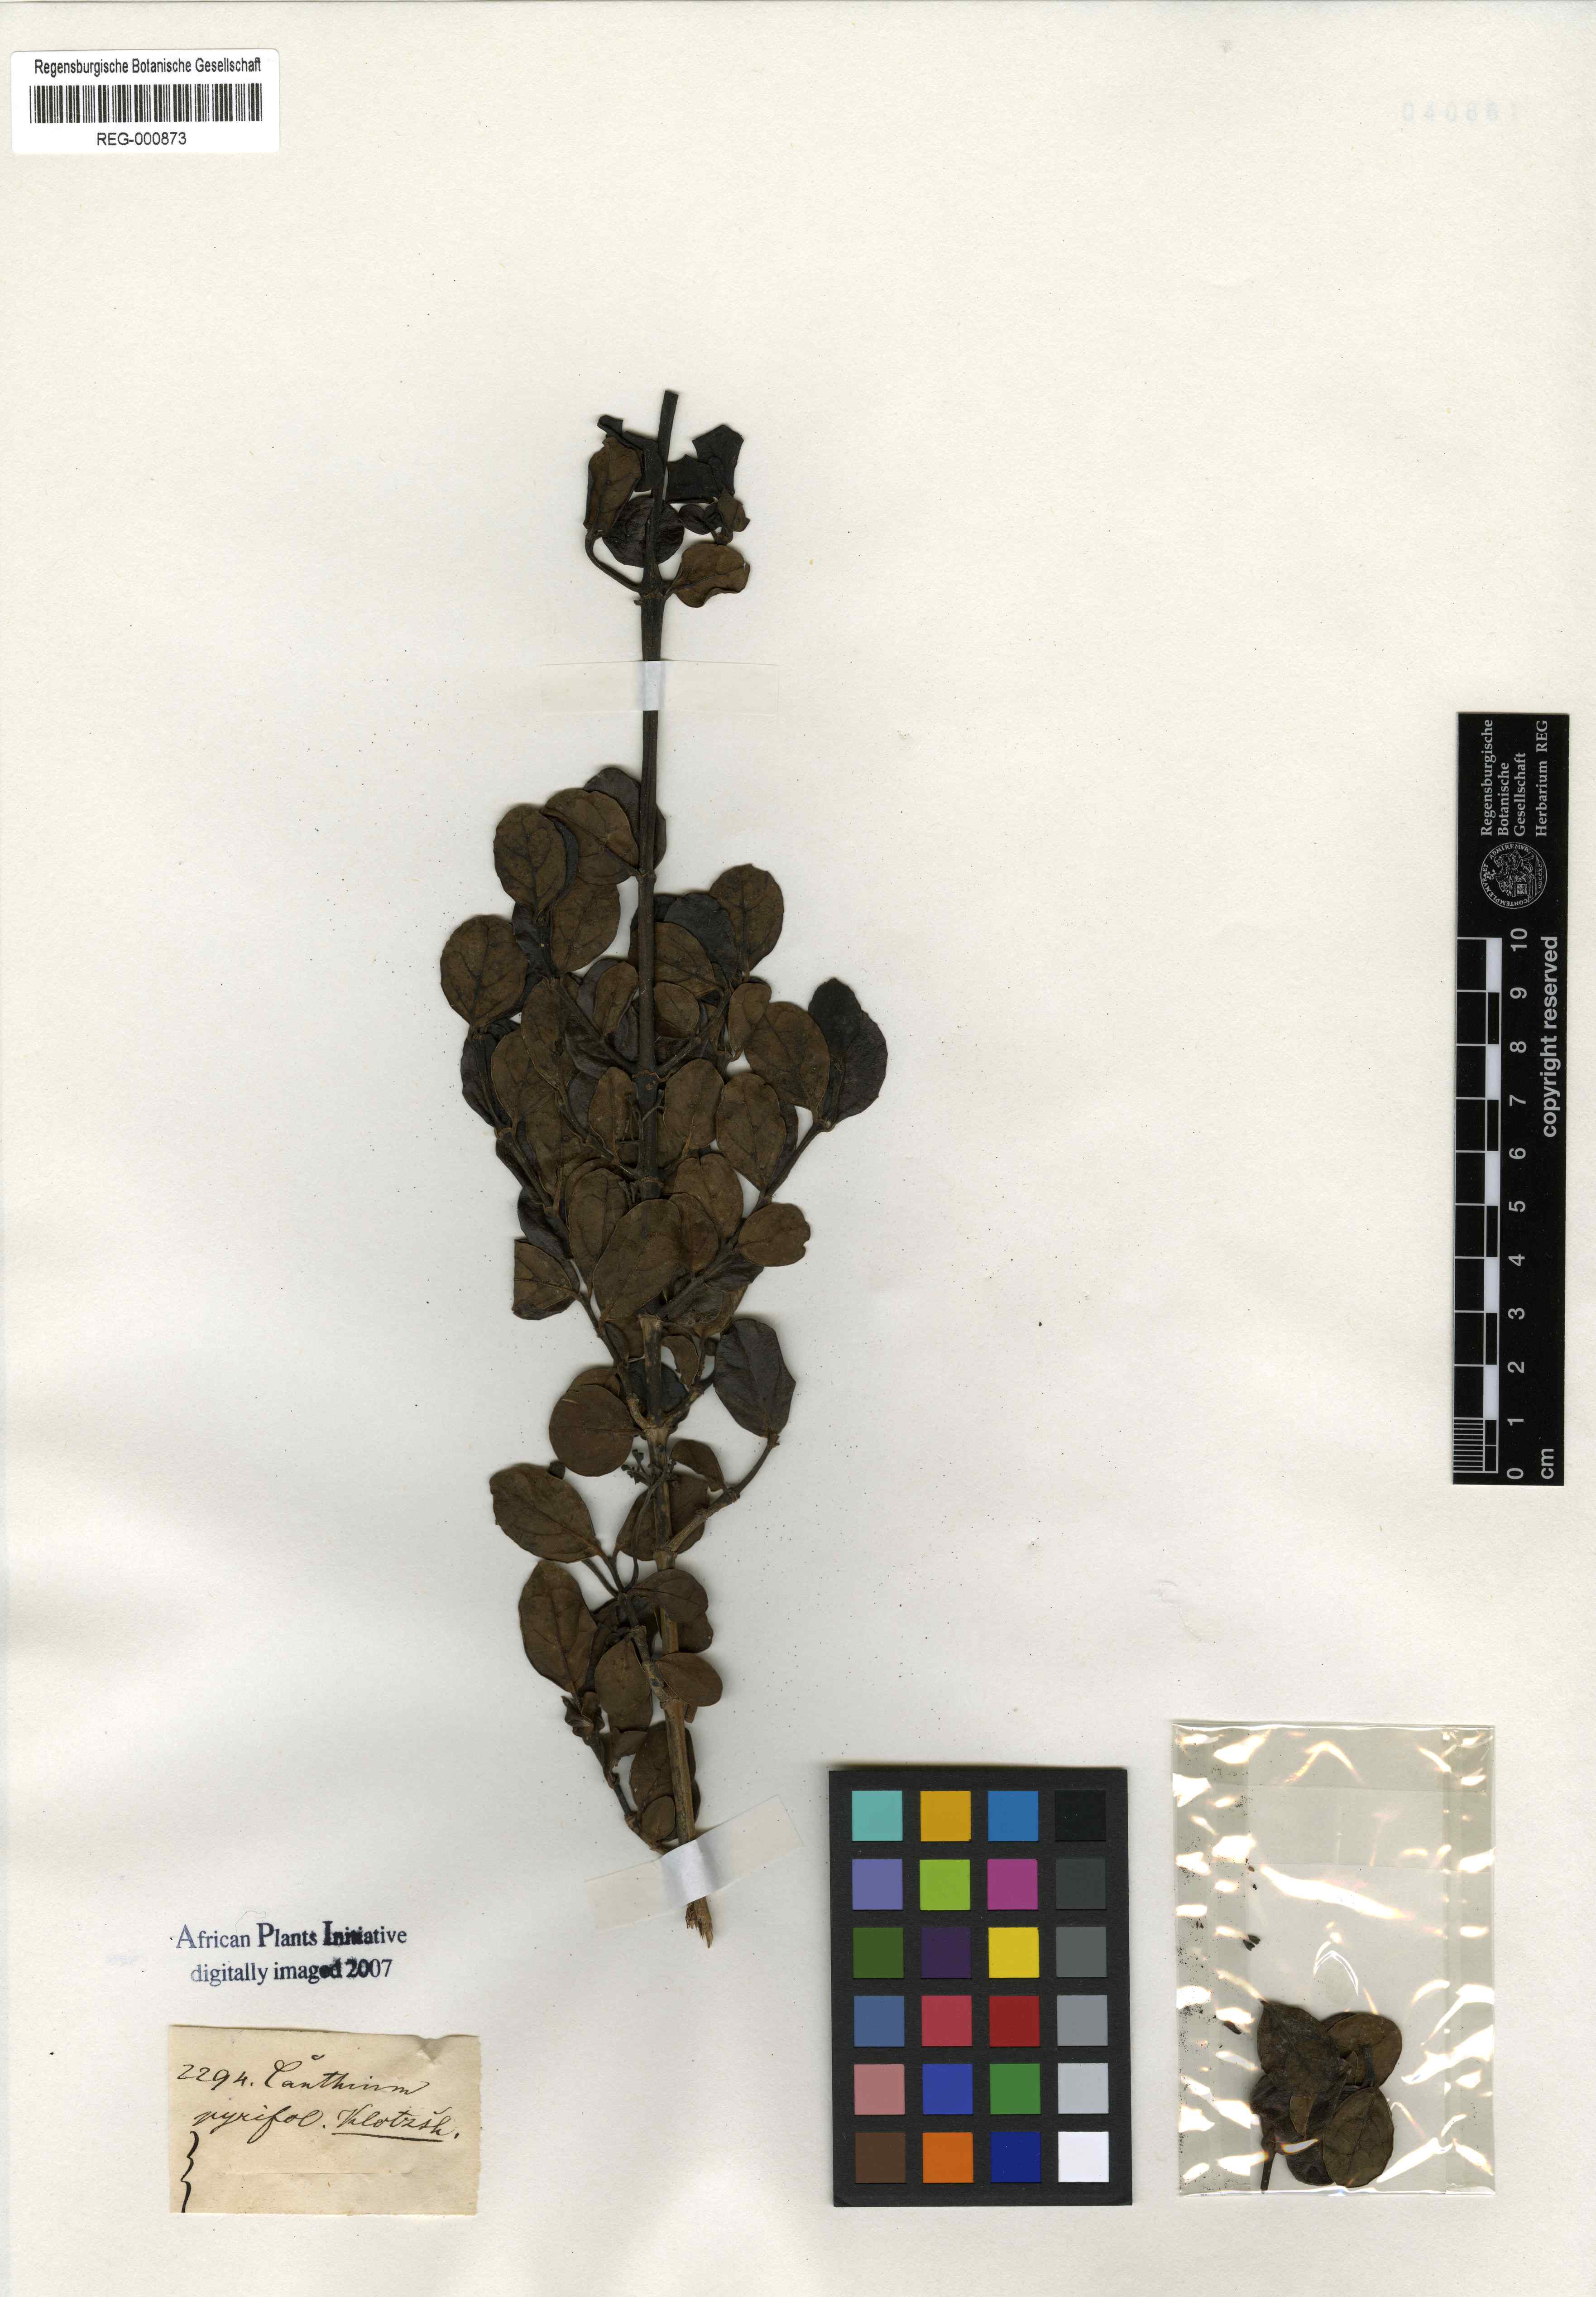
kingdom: Plantae
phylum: Tracheophyta
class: Magnoliopsida
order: Gentianales
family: Rubiaceae
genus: Psydrax
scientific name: Psydrax obovatus
